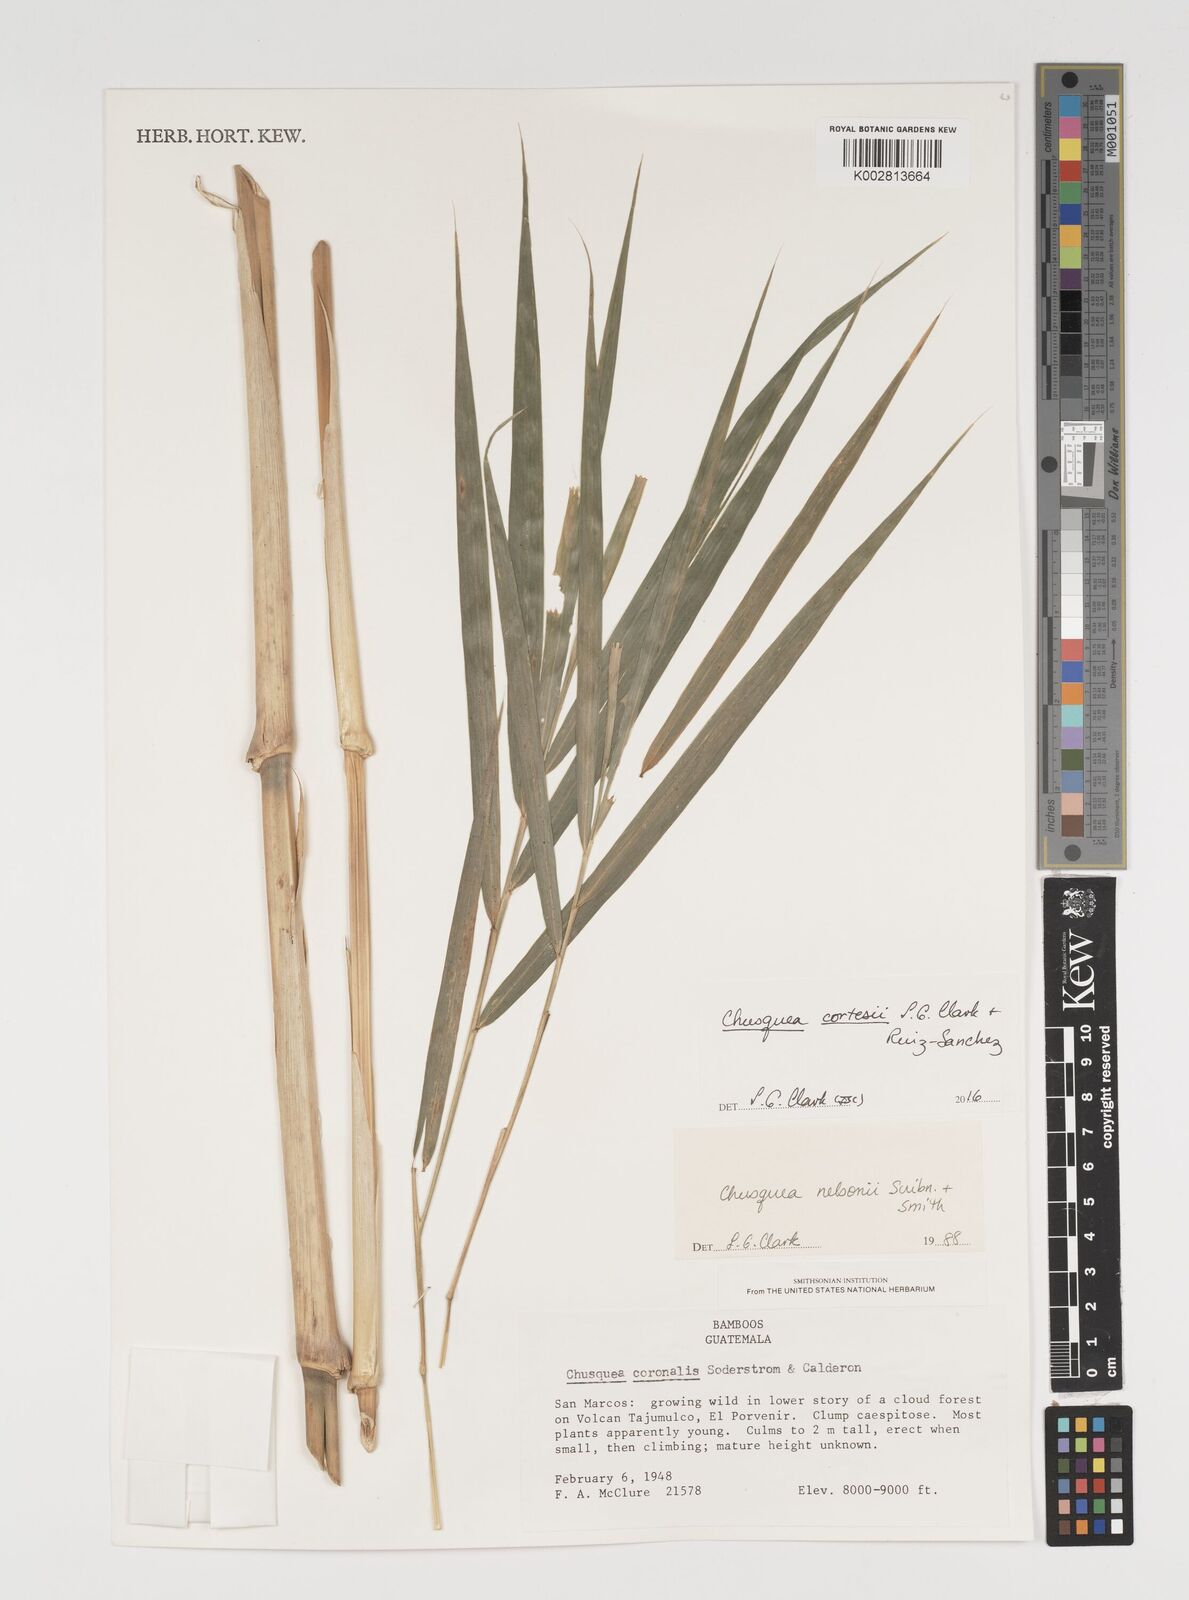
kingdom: Plantae
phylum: Tracheophyta
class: Liliopsida
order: Poales
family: Poaceae
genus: Chusquea
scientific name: Chusquea cortesii
